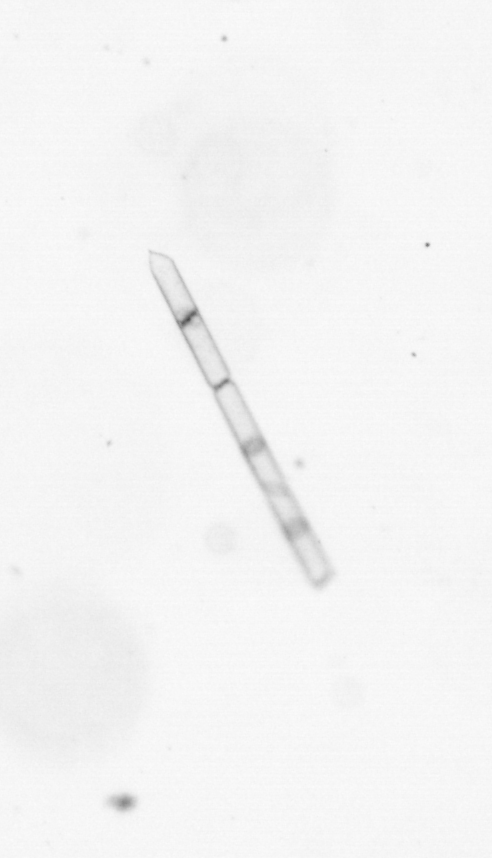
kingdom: Chromista
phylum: Ochrophyta
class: Bacillariophyceae
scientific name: Bacillariophyceae
